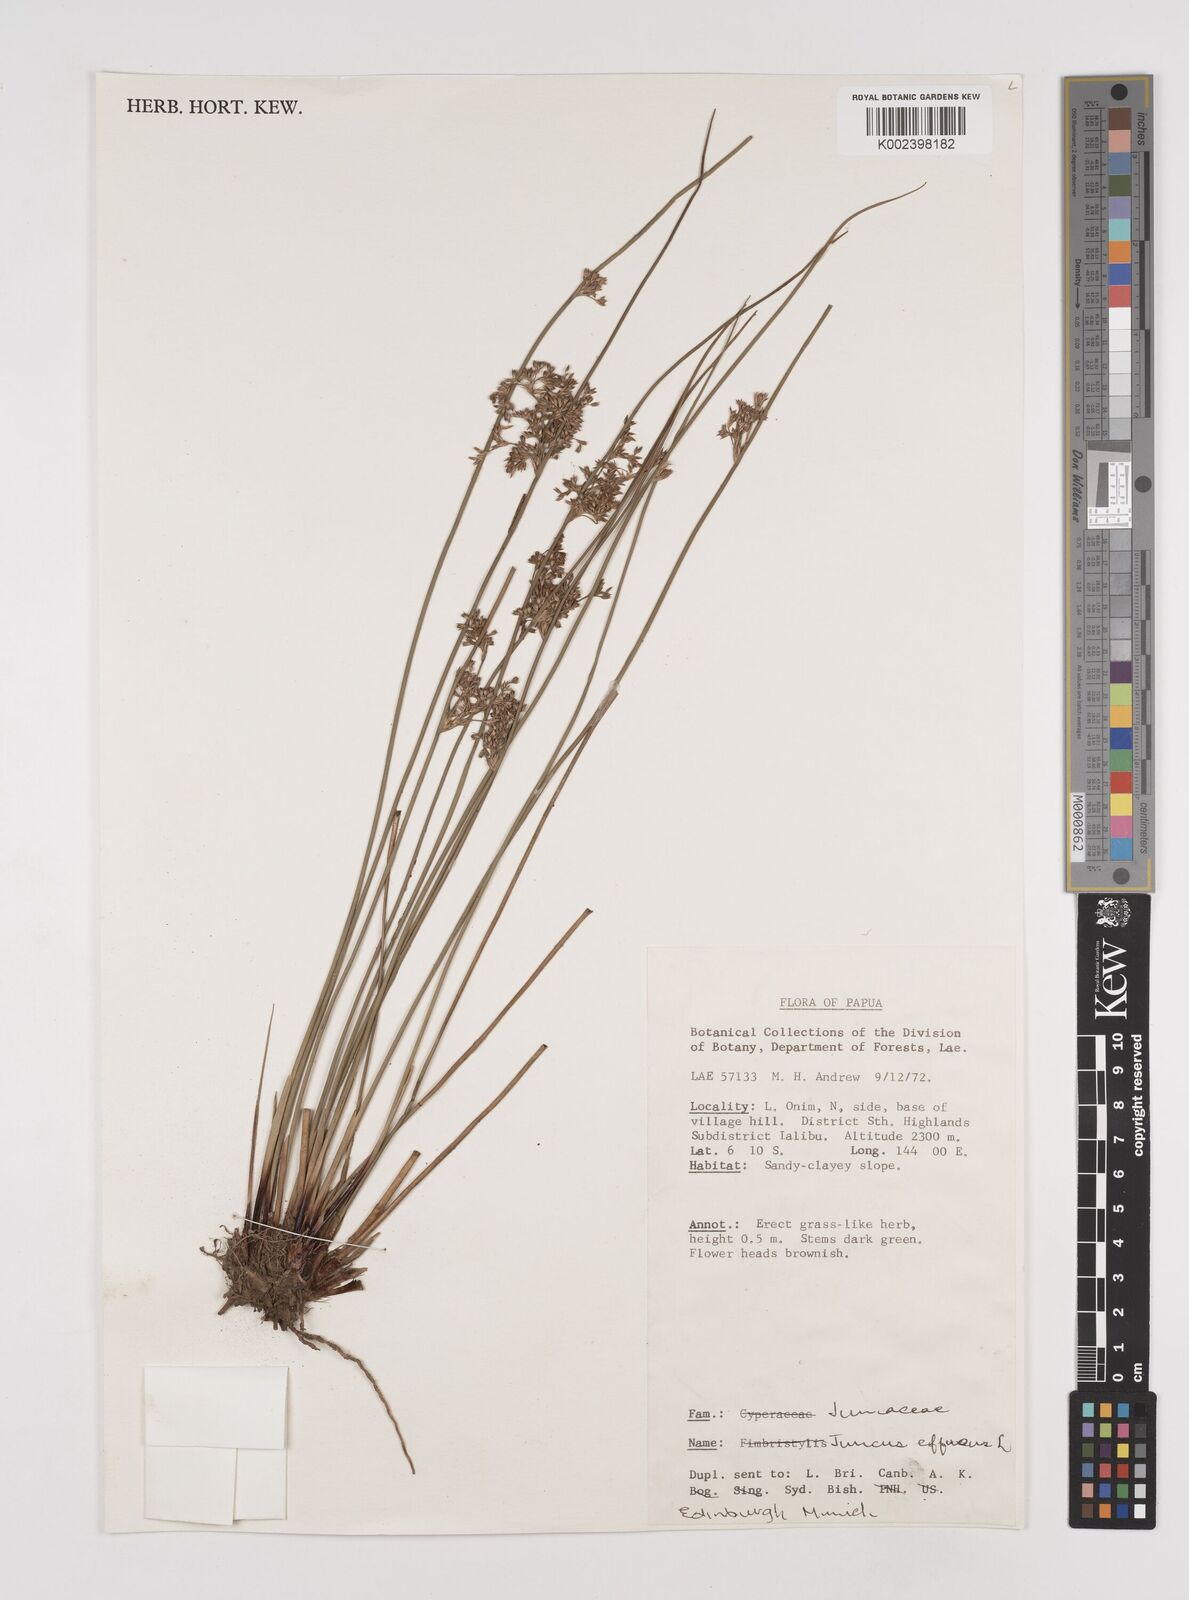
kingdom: Plantae
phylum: Tracheophyta
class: Liliopsida
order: Poales
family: Juncaceae
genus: Juncus
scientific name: Juncus decipiens
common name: Lamp rush
